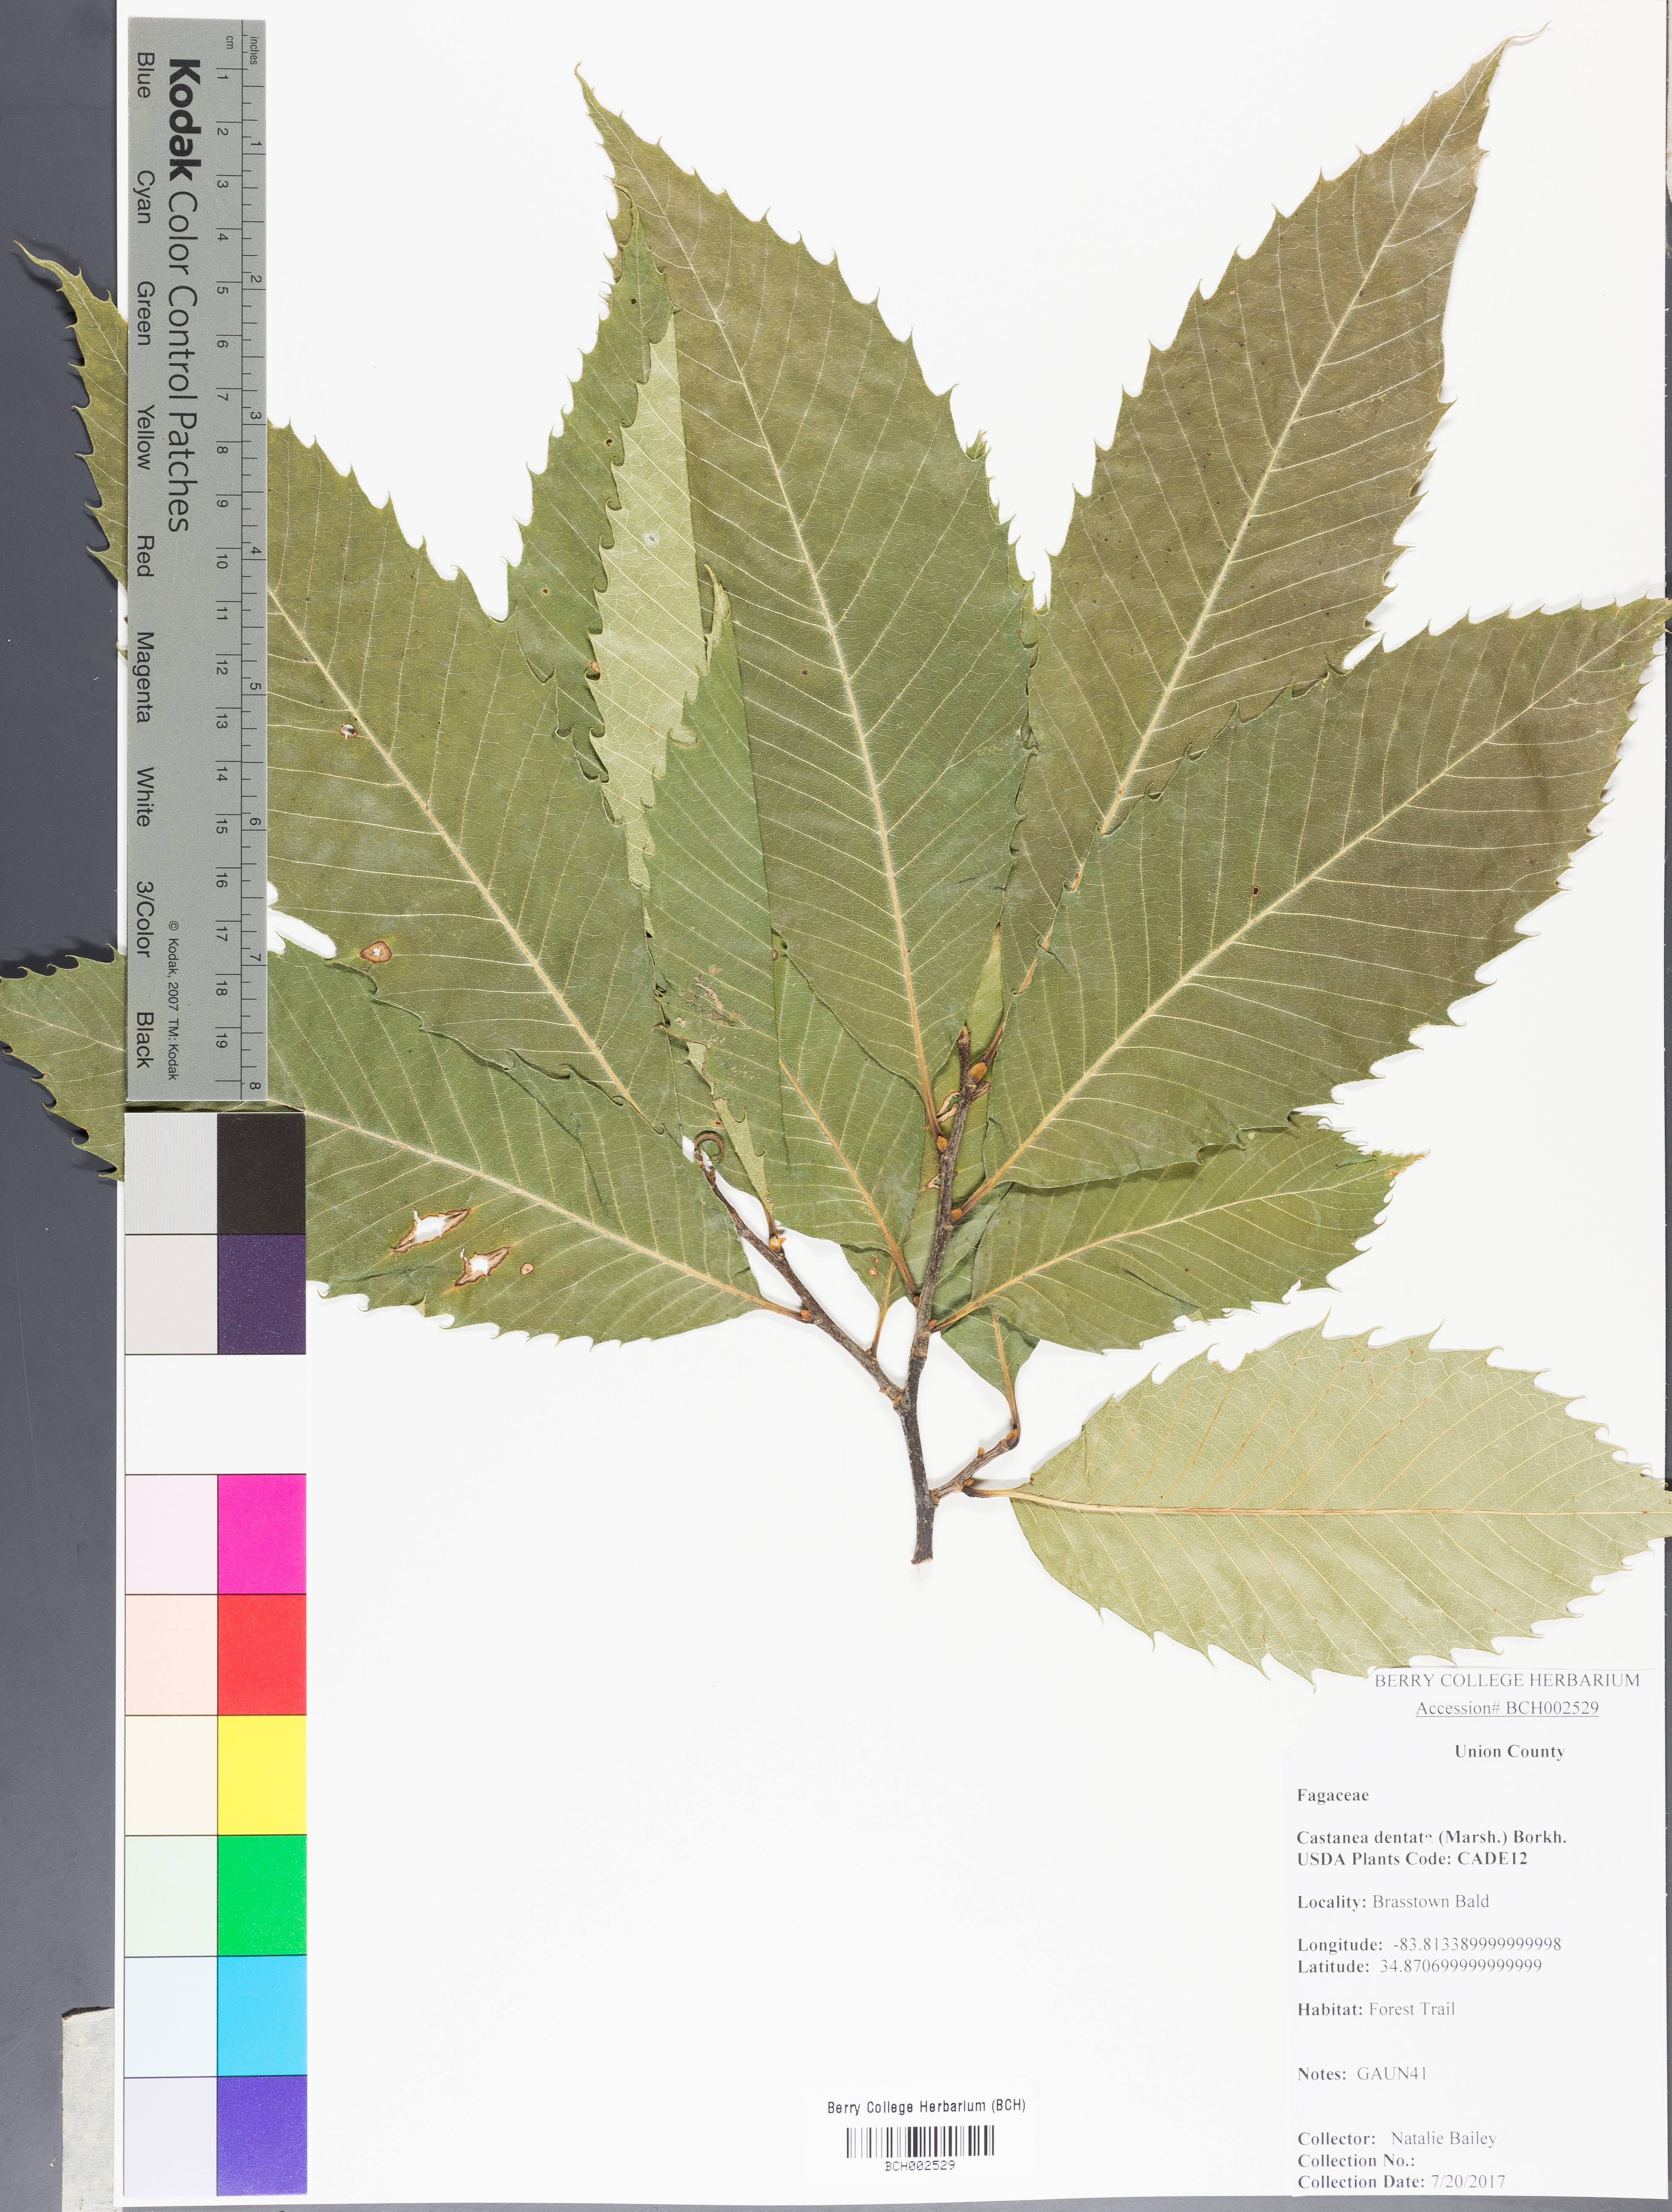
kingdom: Plantae
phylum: Tracheophyta
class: Magnoliopsida
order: Fagales
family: Fagaceae
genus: Castanea
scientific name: Castanea dentata
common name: American chestnut
